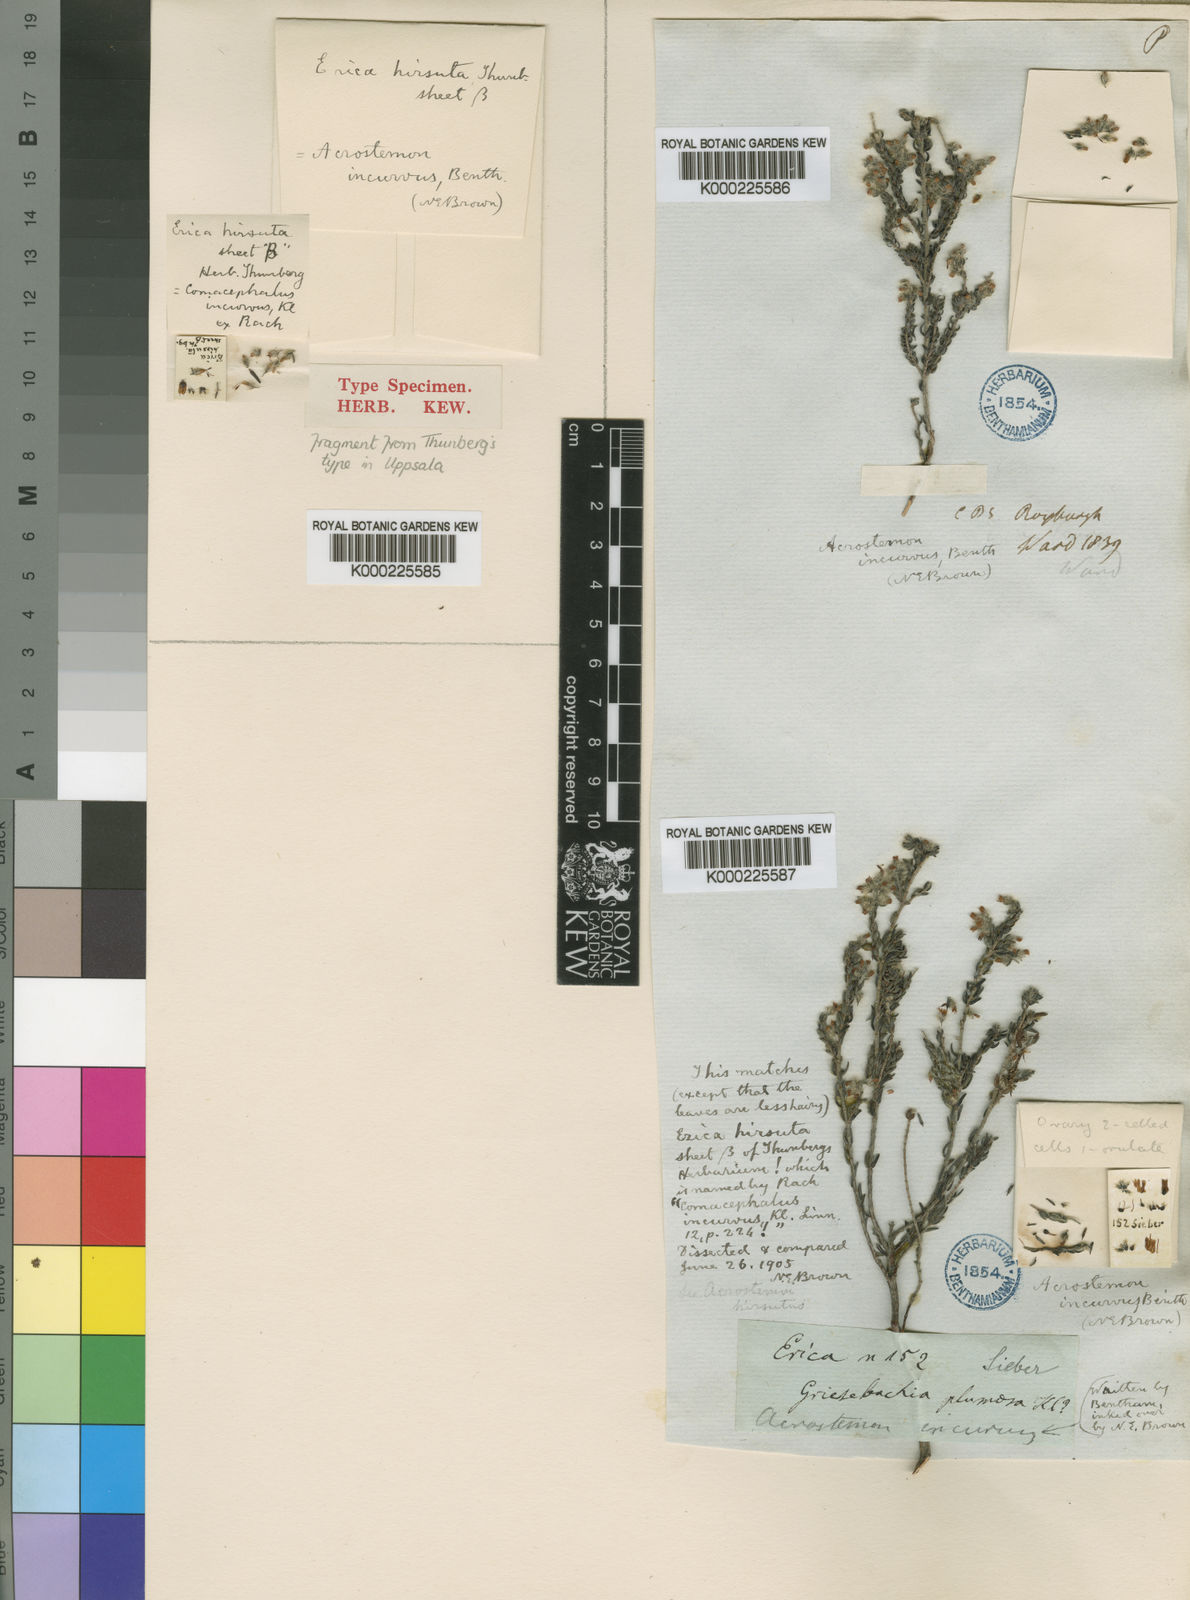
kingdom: Plantae
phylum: Tracheophyta
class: Magnoliopsida
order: Ericales
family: Ericaceae
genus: Erica
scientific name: Erica eriocephala
